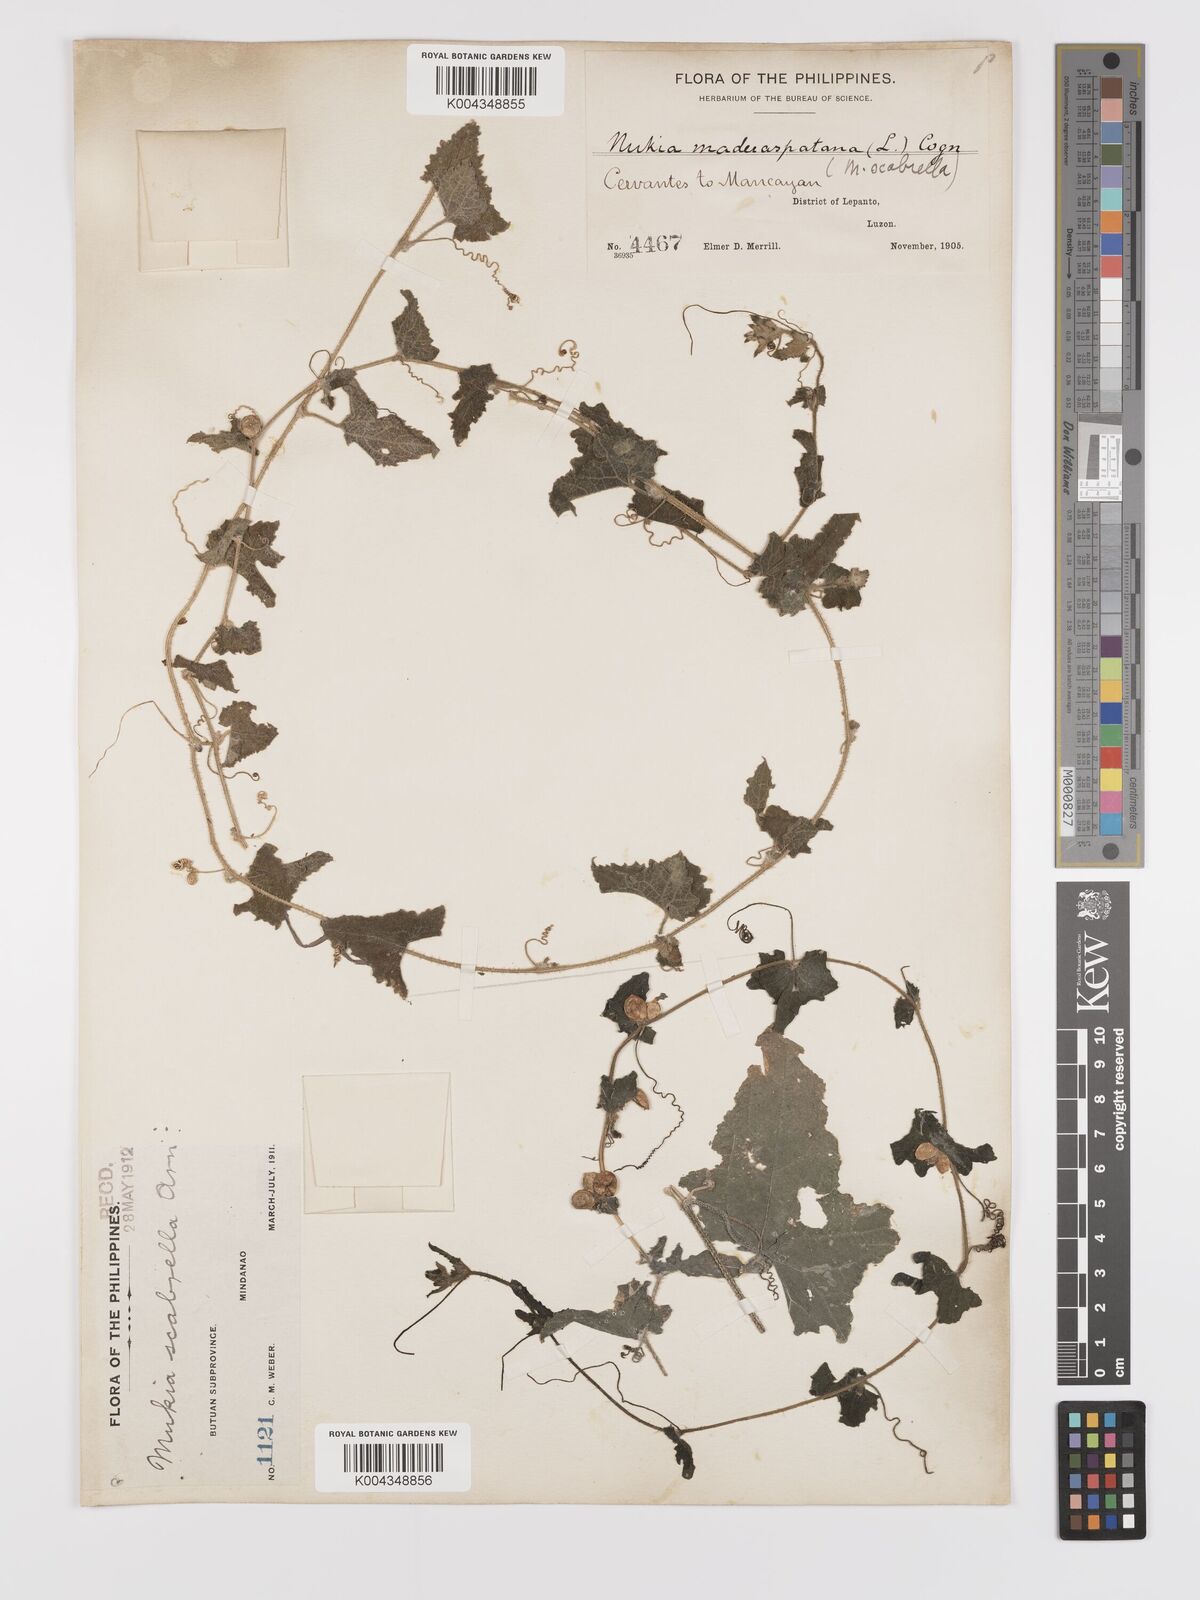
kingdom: Plantae
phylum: Tracheophyta
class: Magnoliopsida
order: Cucurbitales
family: Cucurbitaceae
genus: Cucumis
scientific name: Cucumis maderaspatanus
